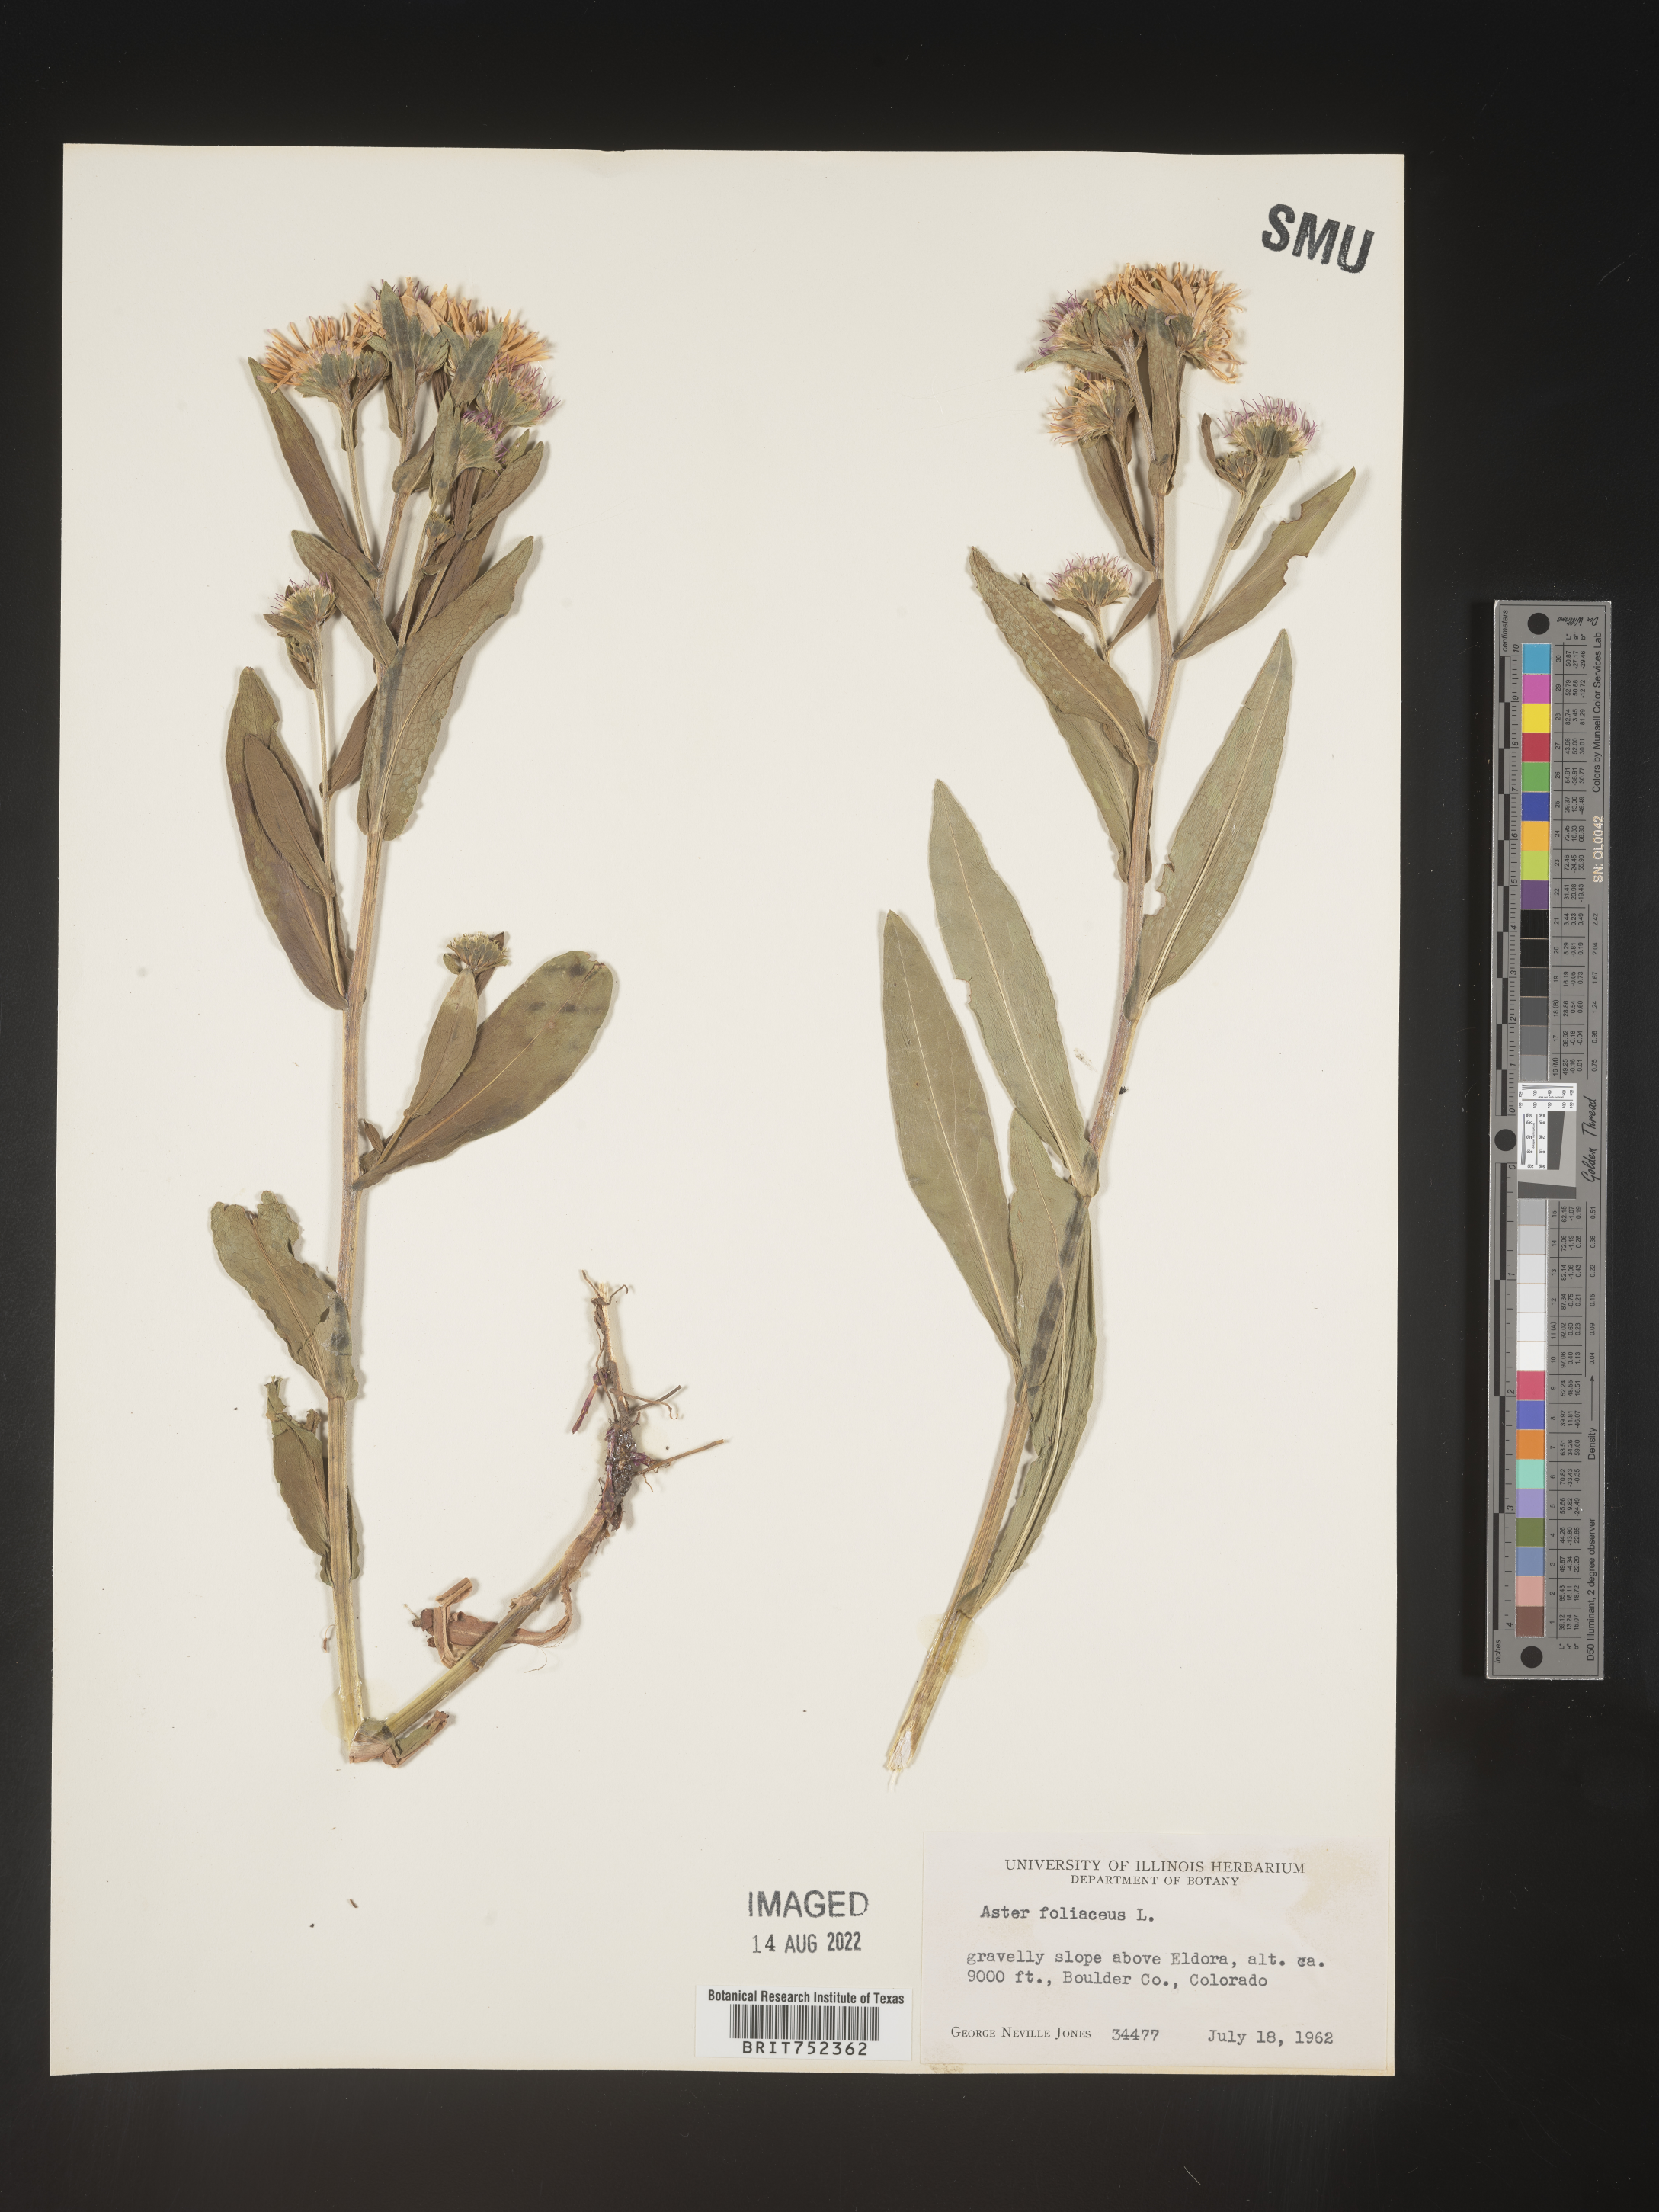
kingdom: Plantae
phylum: Tracheophyta
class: Magnoliopsida
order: Asterales
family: Asteraceae
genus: Symphyotrichum
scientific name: Symphyotrichum foliaceum
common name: Leafy aster
